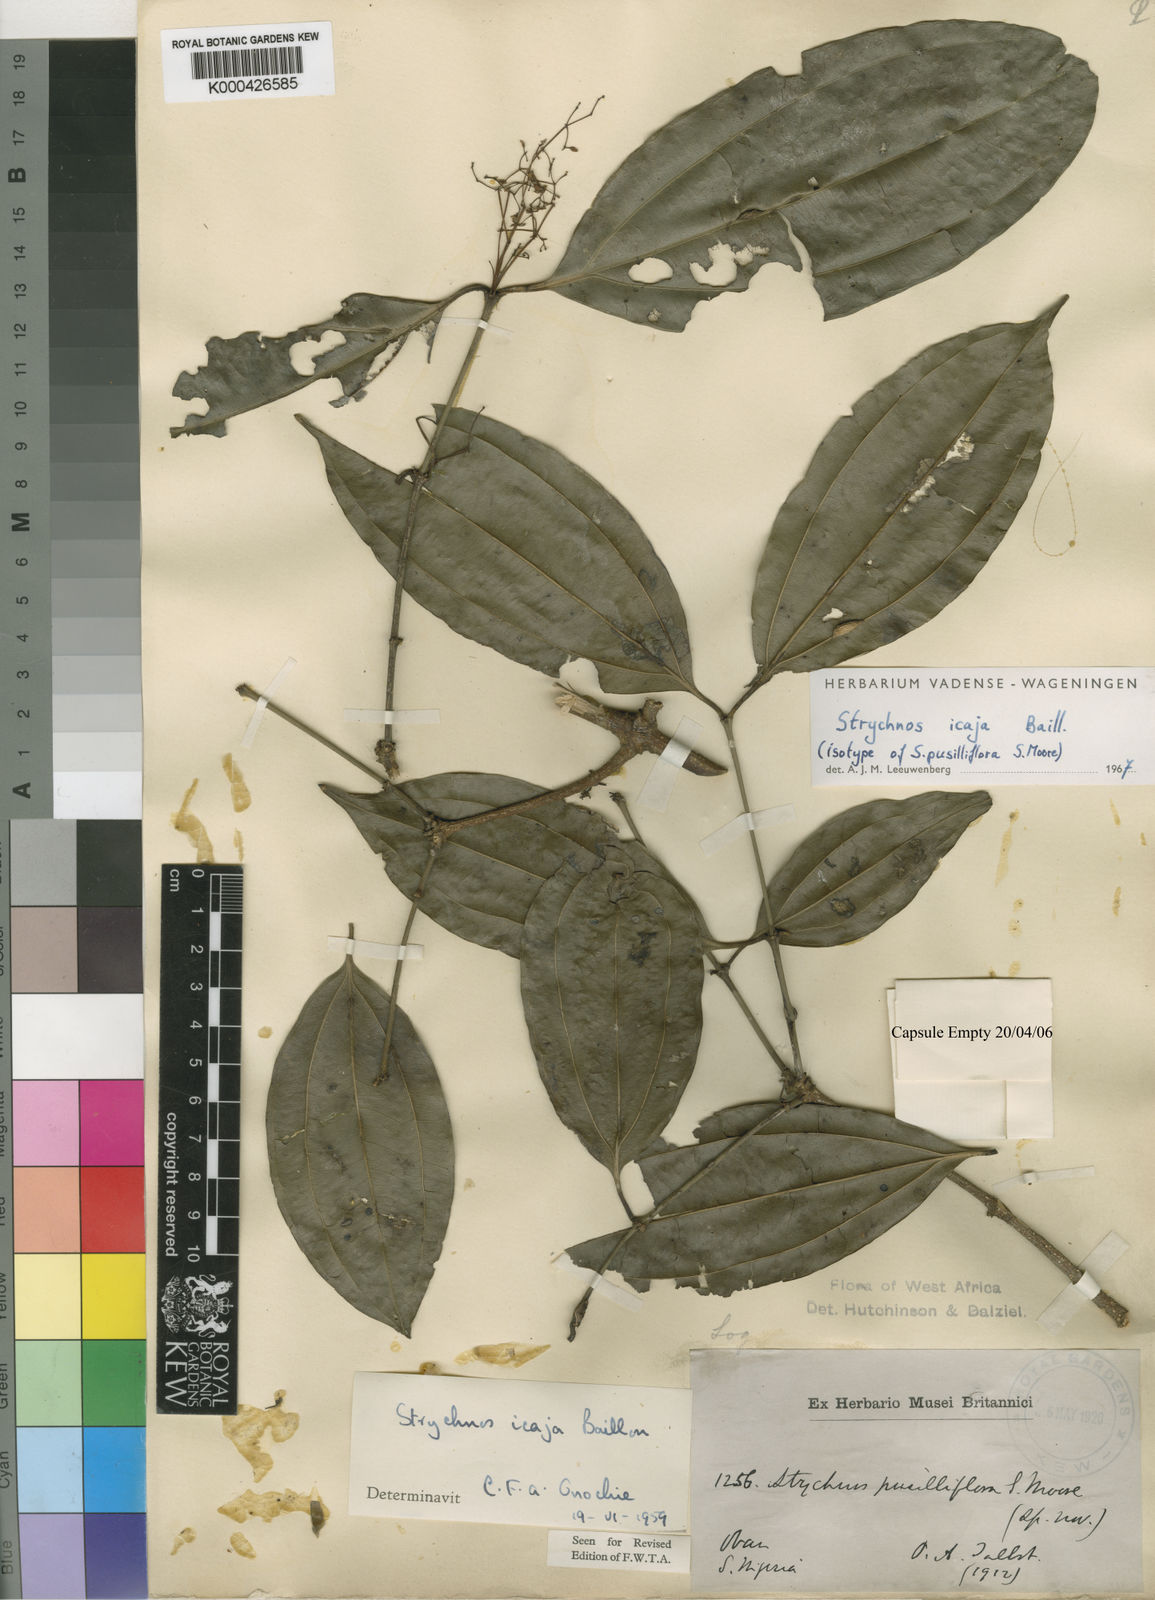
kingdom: Plantae
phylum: Tracheophyta
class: Magnoliopsida
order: Gentianales
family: Loganiaceae
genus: Strychnos
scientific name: Strychnos icaja
